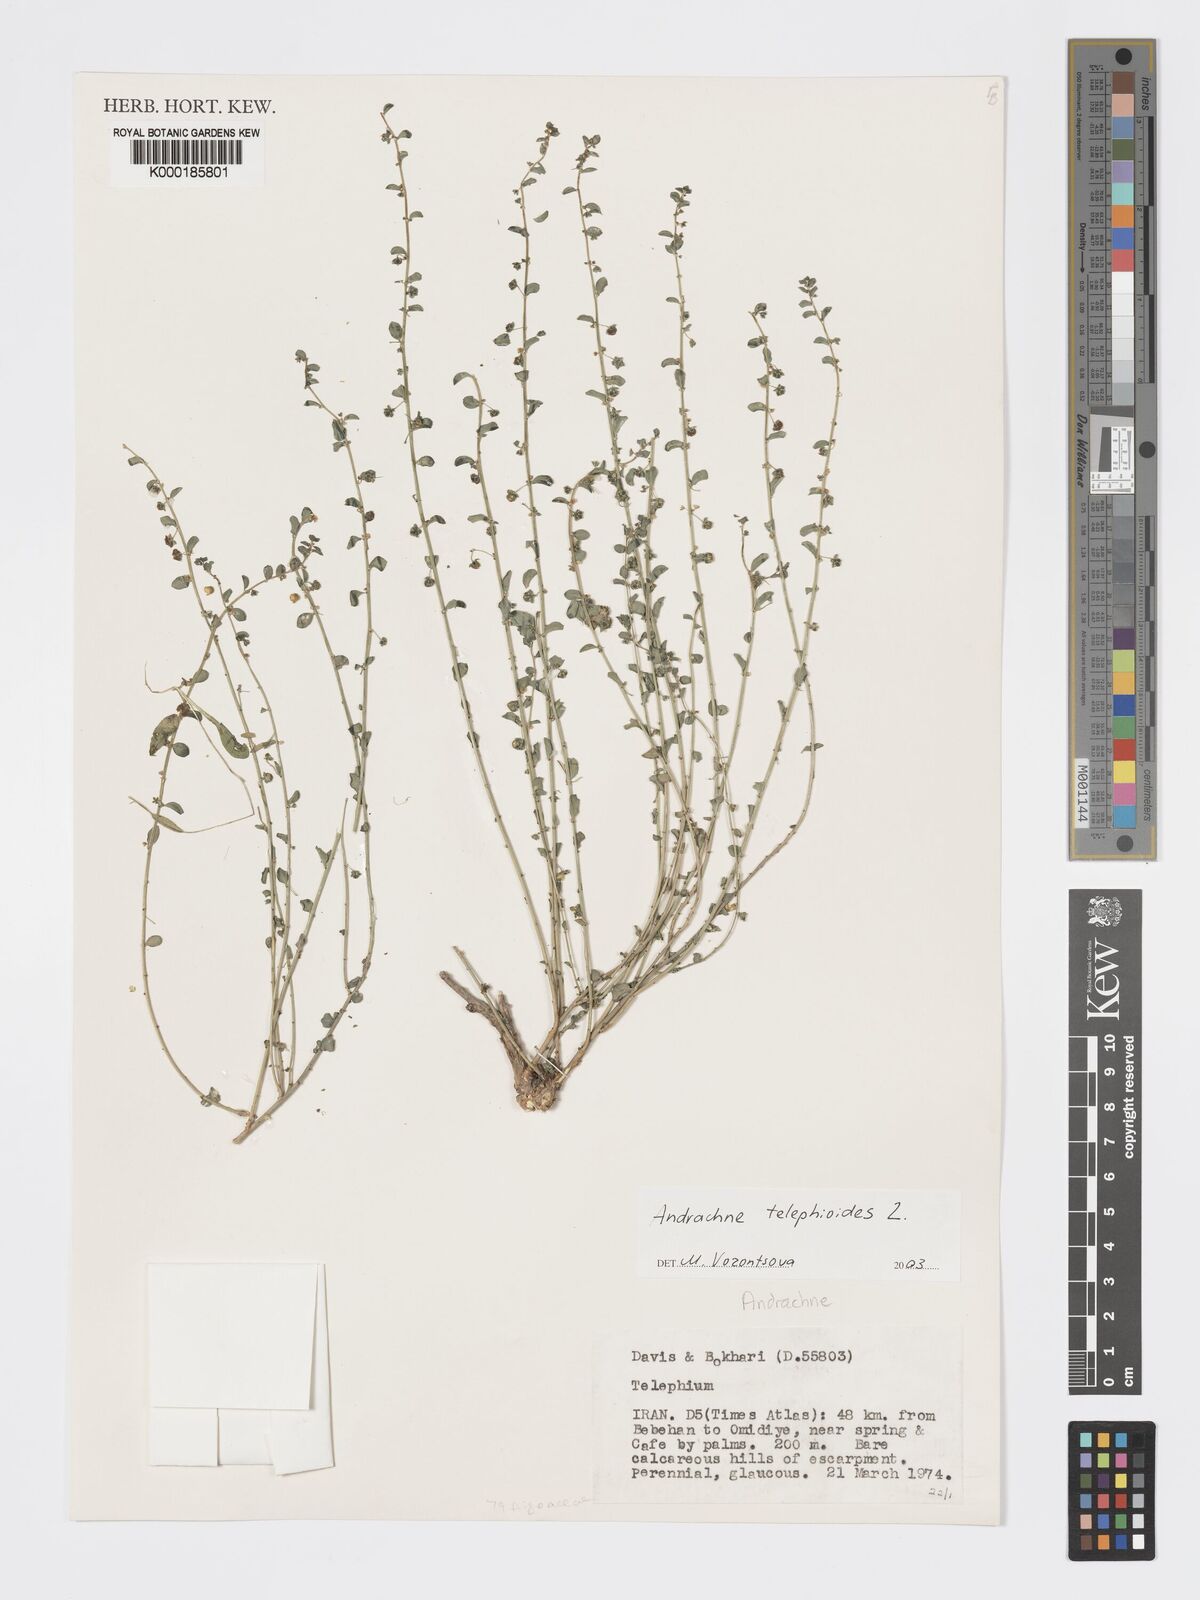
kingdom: Plantae
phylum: Tracheophyta
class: Magnoliopsida
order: Malpighiales
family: Phyllanthaceae
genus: Andrachne
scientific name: Andrachne telephioides
